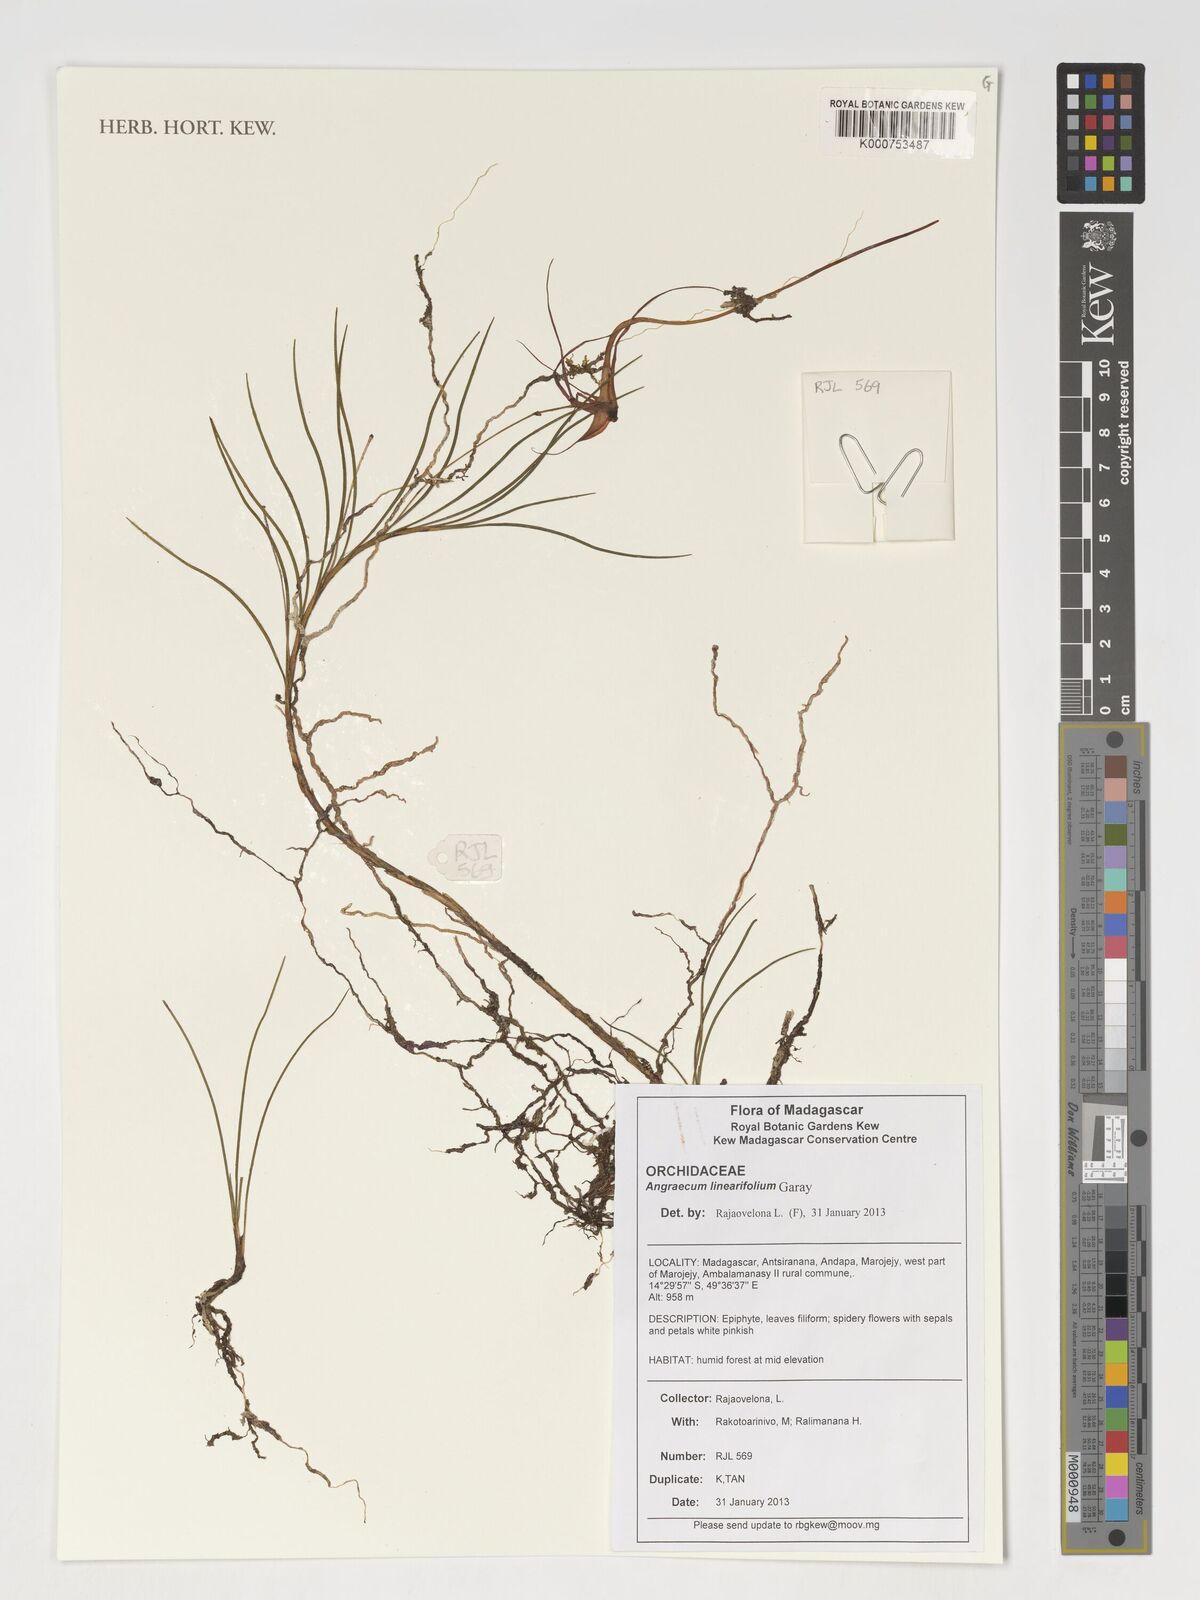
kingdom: Plantae
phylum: Tracheophyta
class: Liliopsida
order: Asparagales
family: Orchidaceae
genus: Angraecum
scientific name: Angraecum linearifolium
